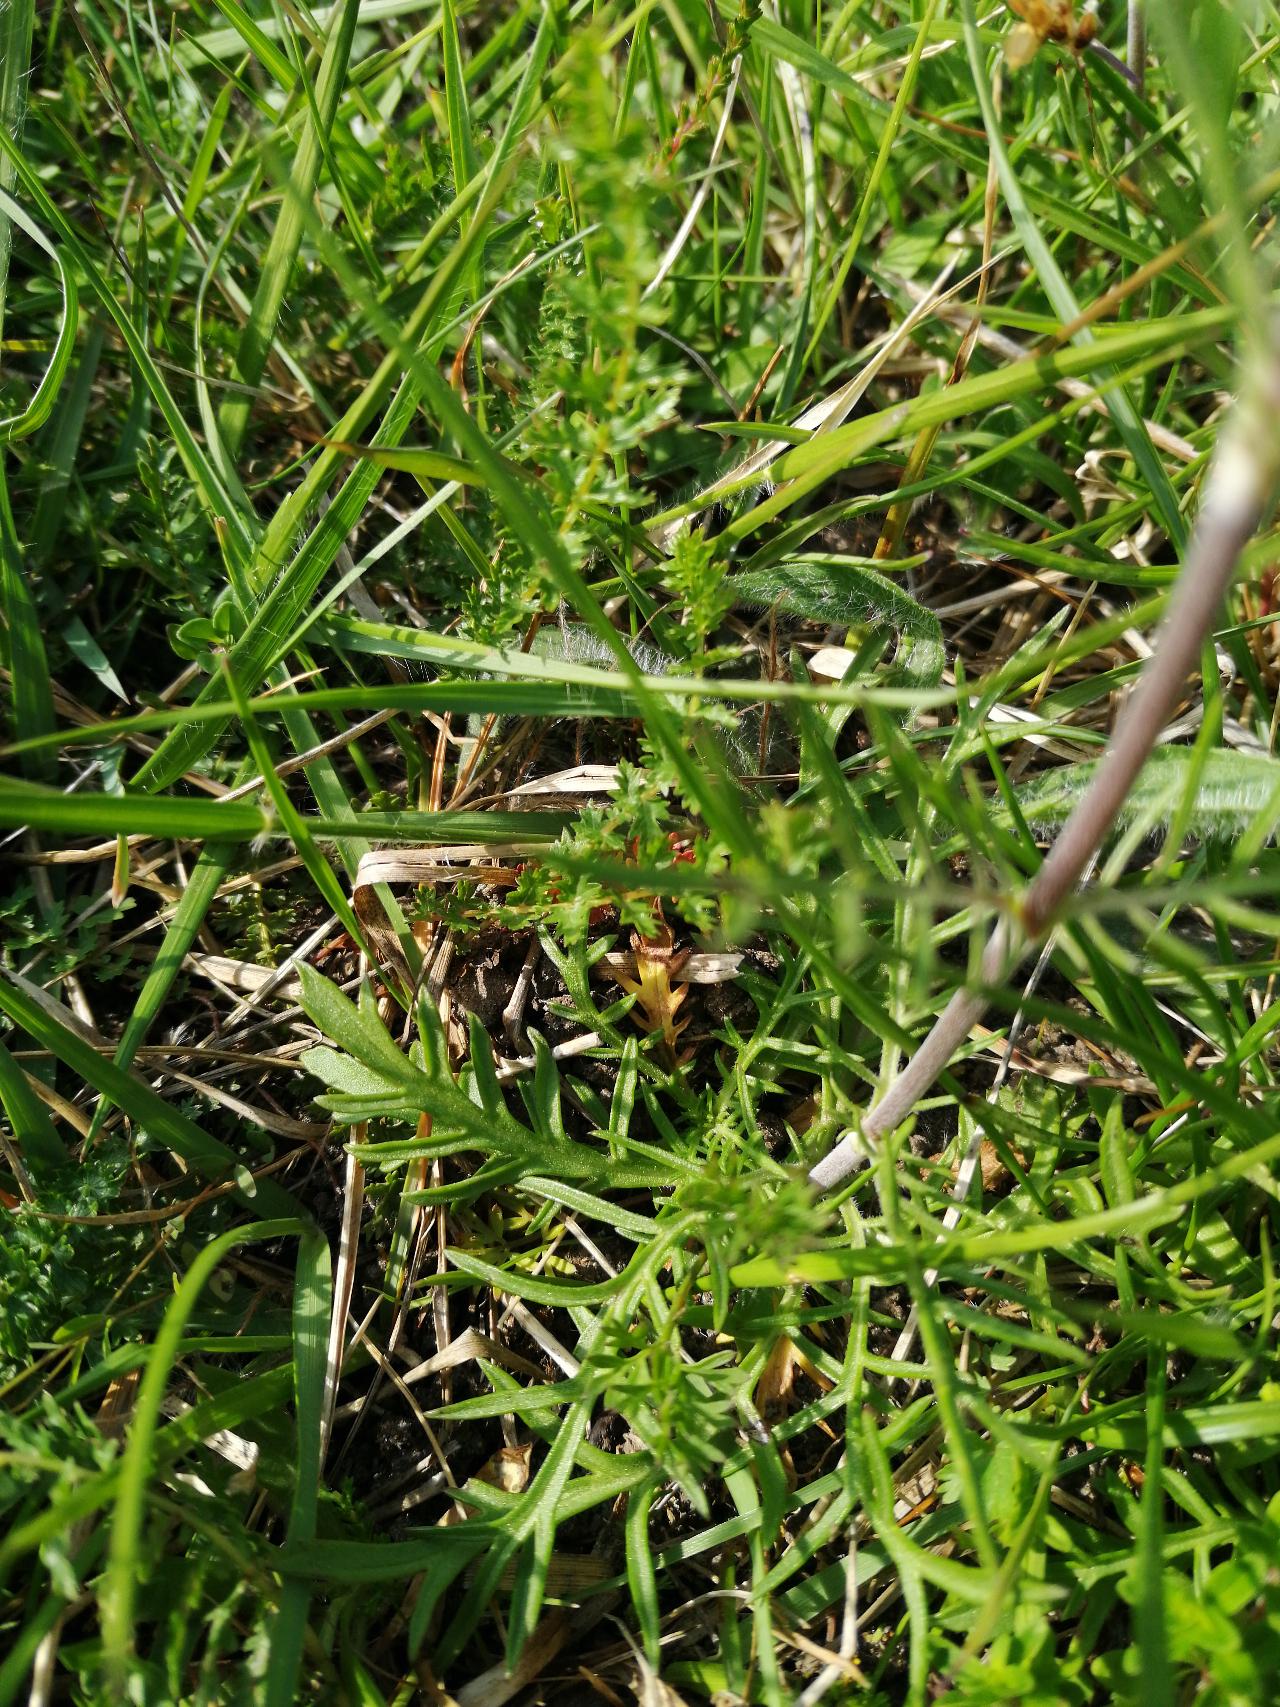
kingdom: Plantae
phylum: Tracheophyta
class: Magnoliopsida
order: Dipsacales
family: Caprifoliaceae
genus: Scabiosa
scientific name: Scabiosa canescens
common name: Vellugtende skabiose
